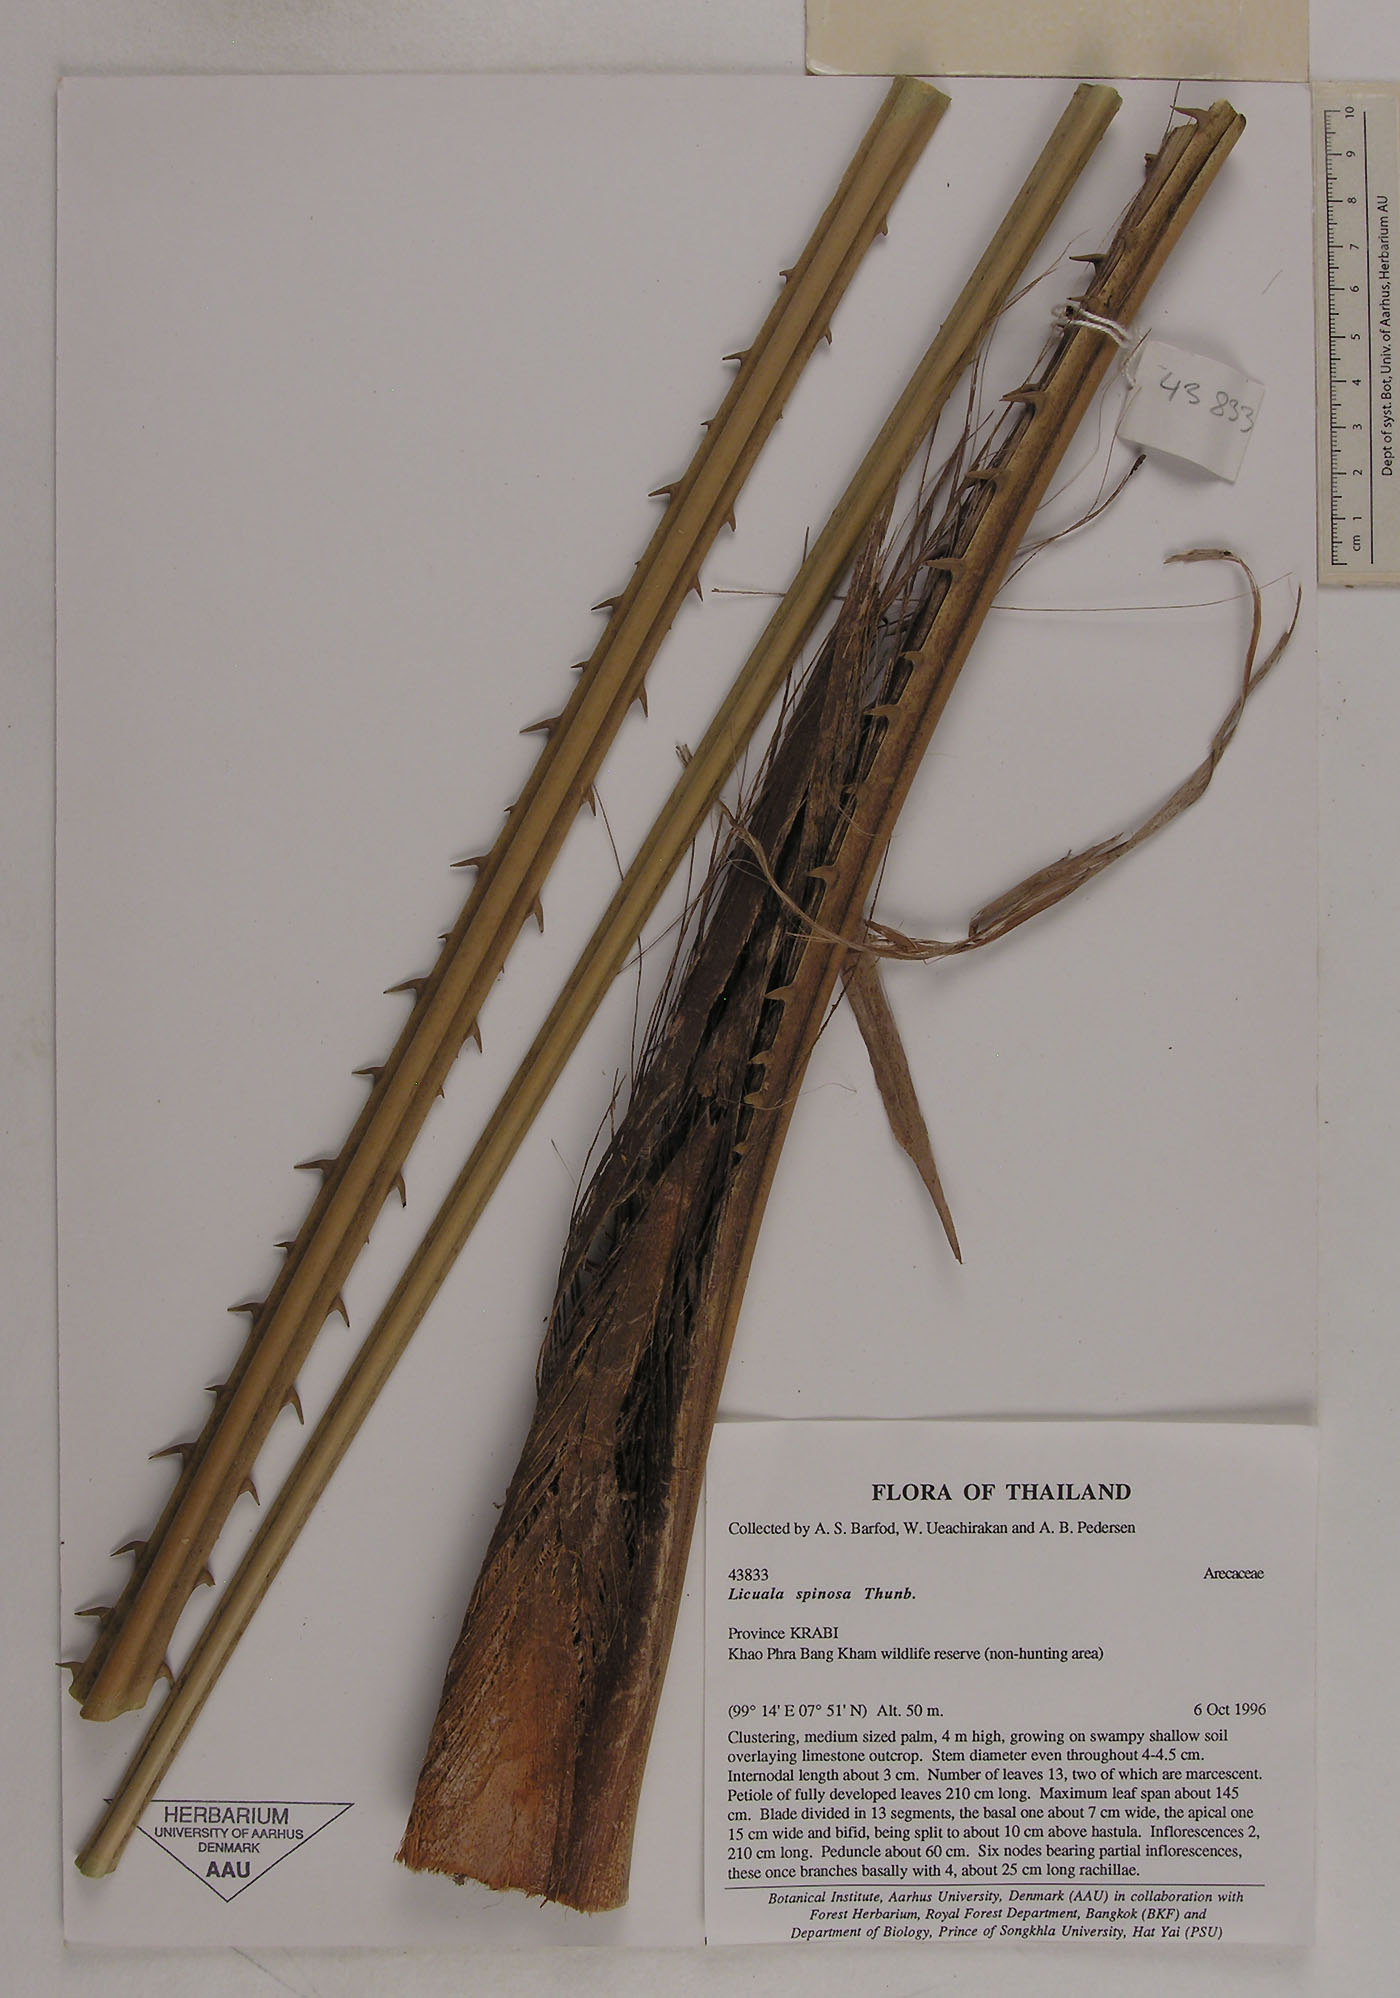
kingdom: Plantae
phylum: Tracheophyta
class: Liliopsida
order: Arecales
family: Arecaceae
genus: Licuala
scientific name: Licuala spinosa
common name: Mangrove fan palm
